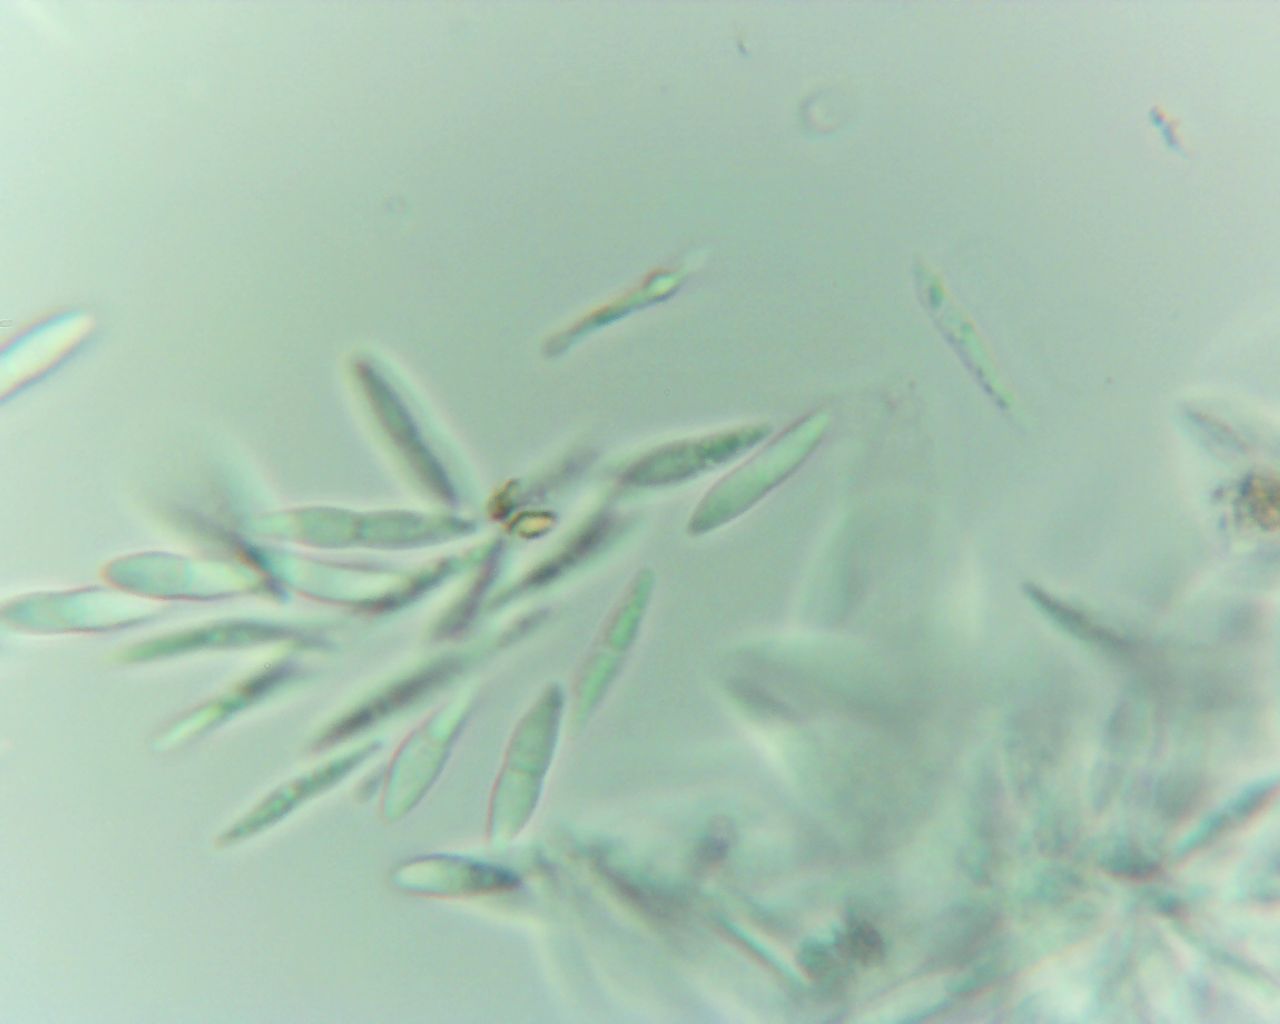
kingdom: Fungi
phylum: Ascomycota
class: Sordariomycetes
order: Diaporthales
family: Gnomoniaceae
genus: Sirococcus
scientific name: Sirococcus conigenus
